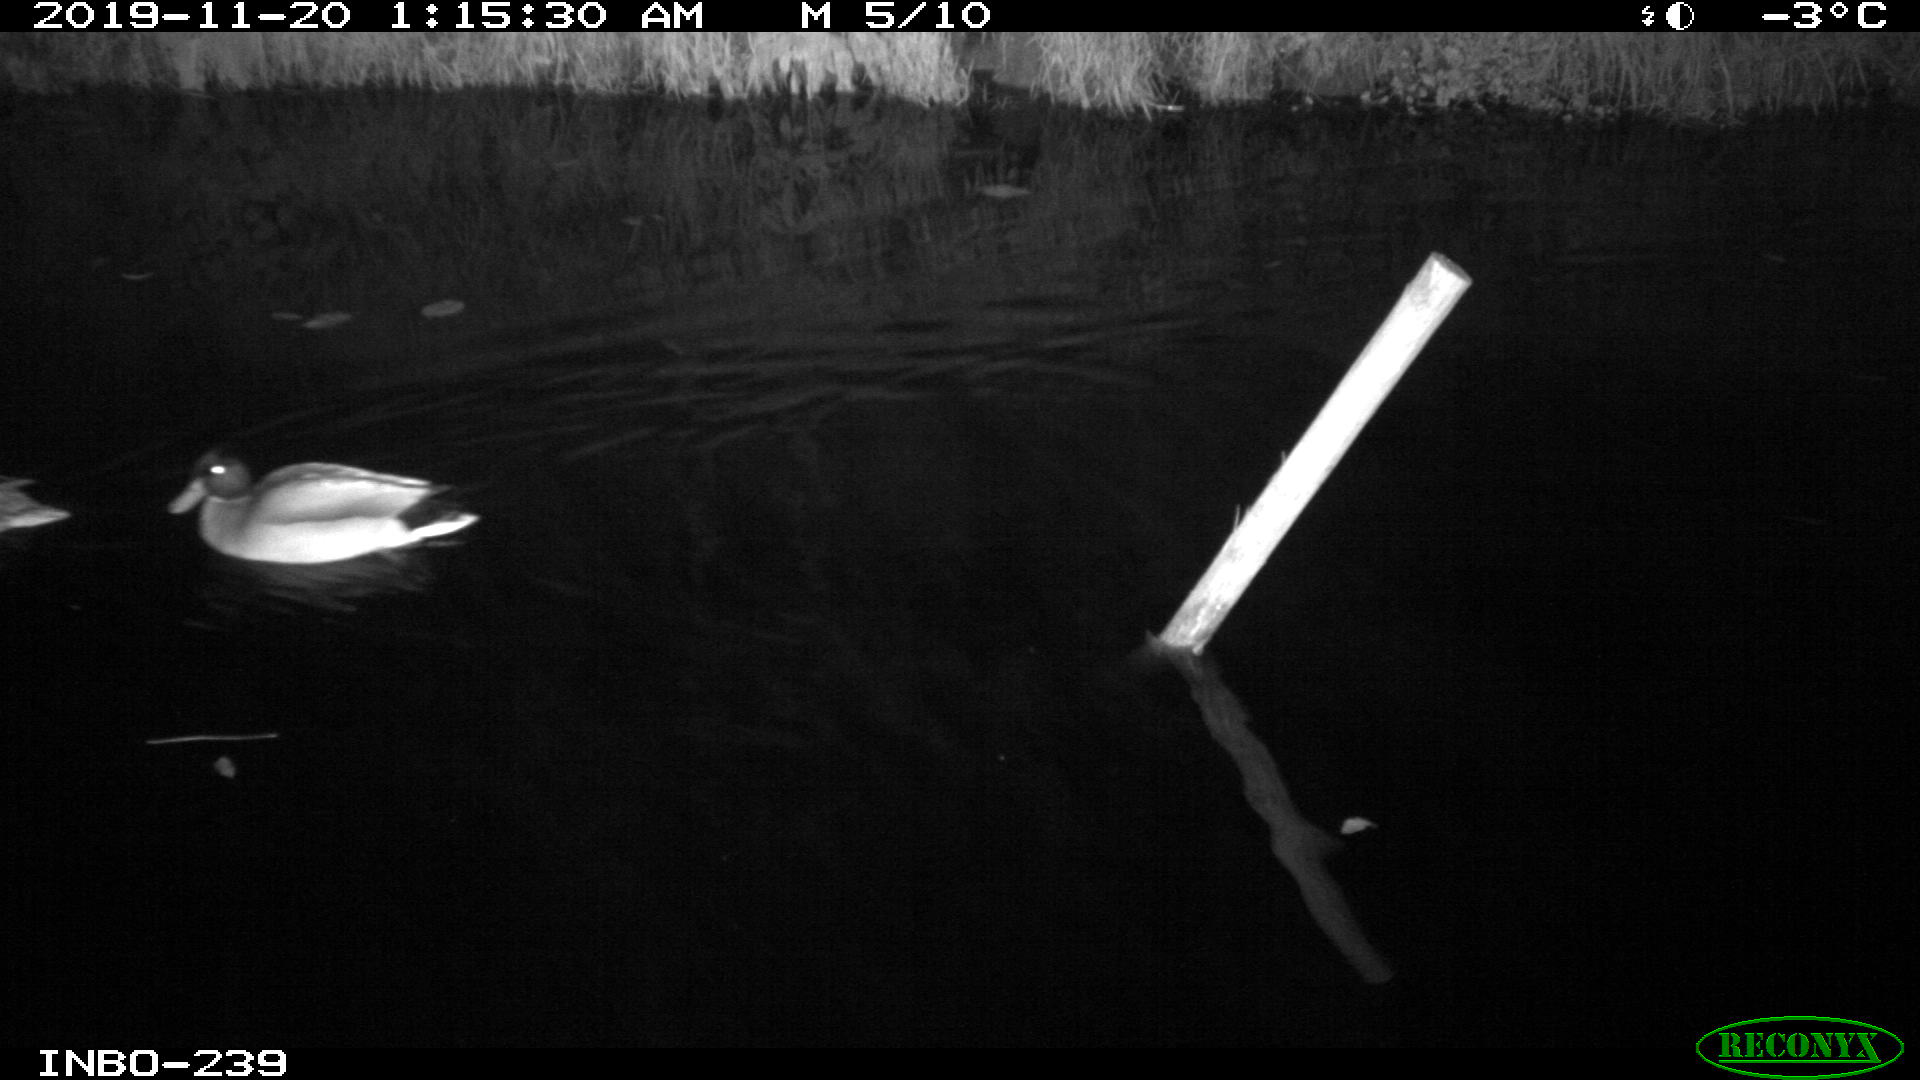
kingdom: Animalia
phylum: Chordata
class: Aves
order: Anseriformes
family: Anatidae
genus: Anas
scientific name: Anas platyrhynchos
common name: Mallard
